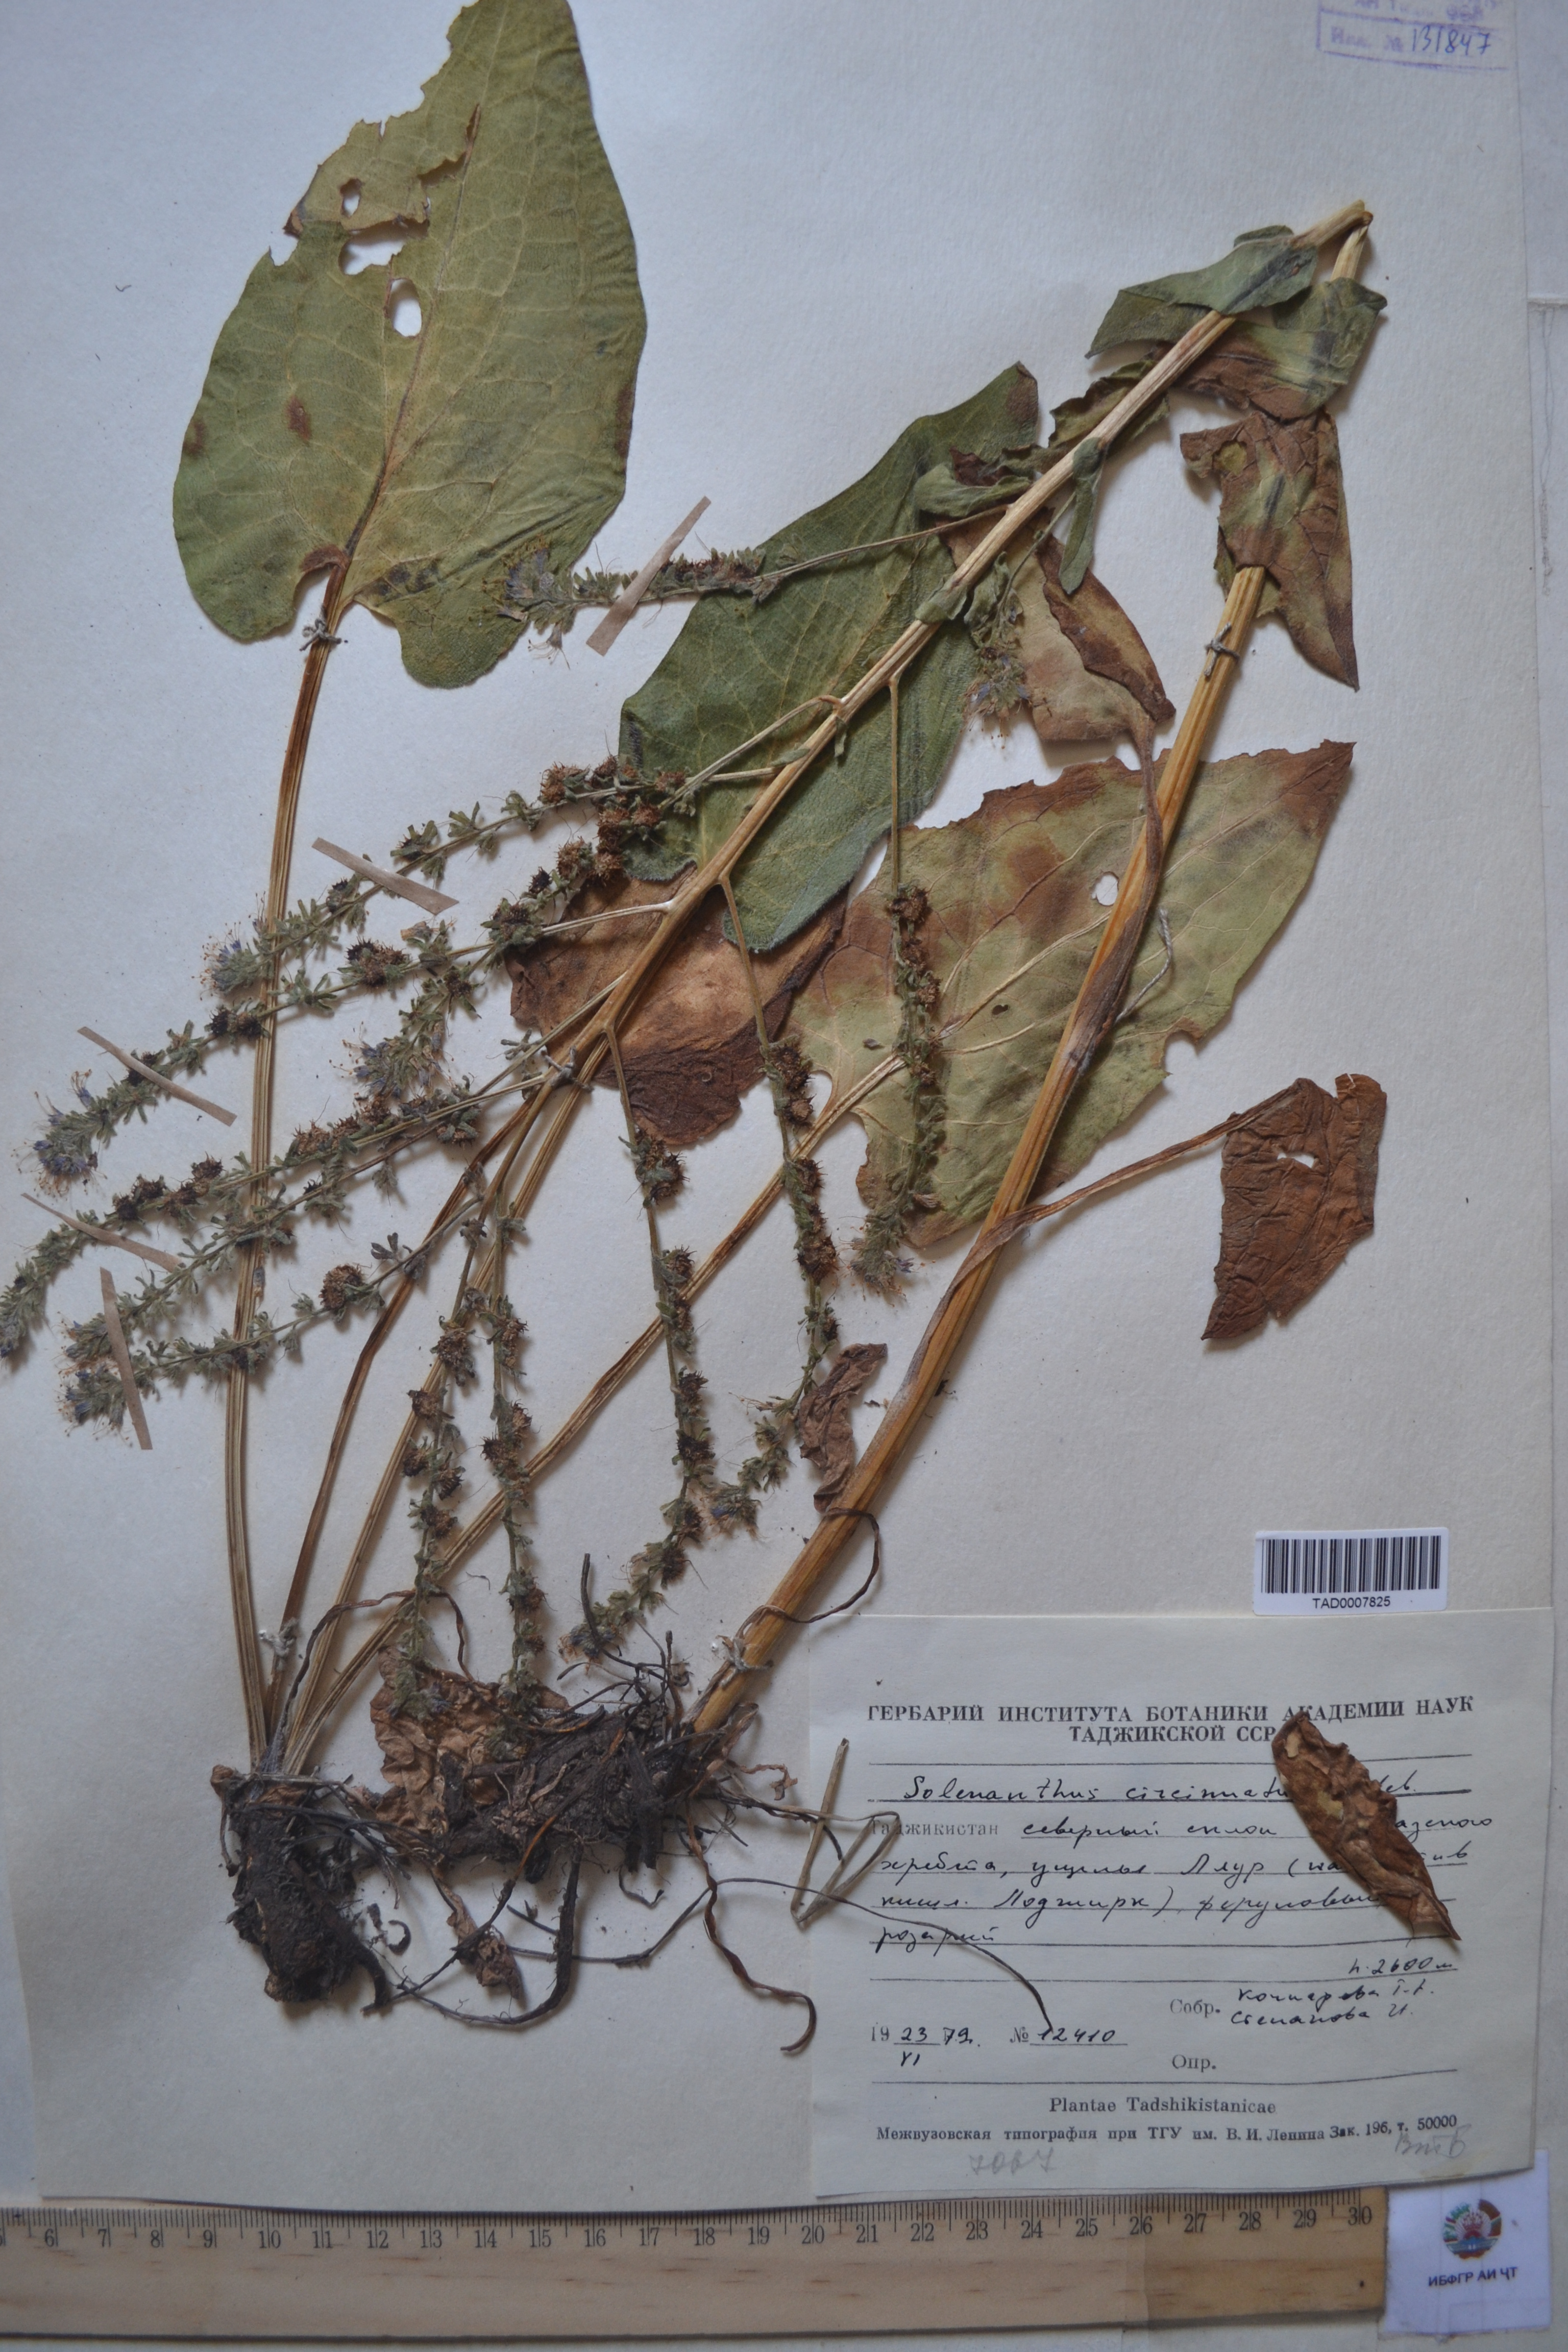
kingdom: Plantae
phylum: Tracheophyta
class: Magnoliopsida
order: Boraginales
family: Boraginaceae
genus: Solenanthus
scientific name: Solenanthus circinnatus
